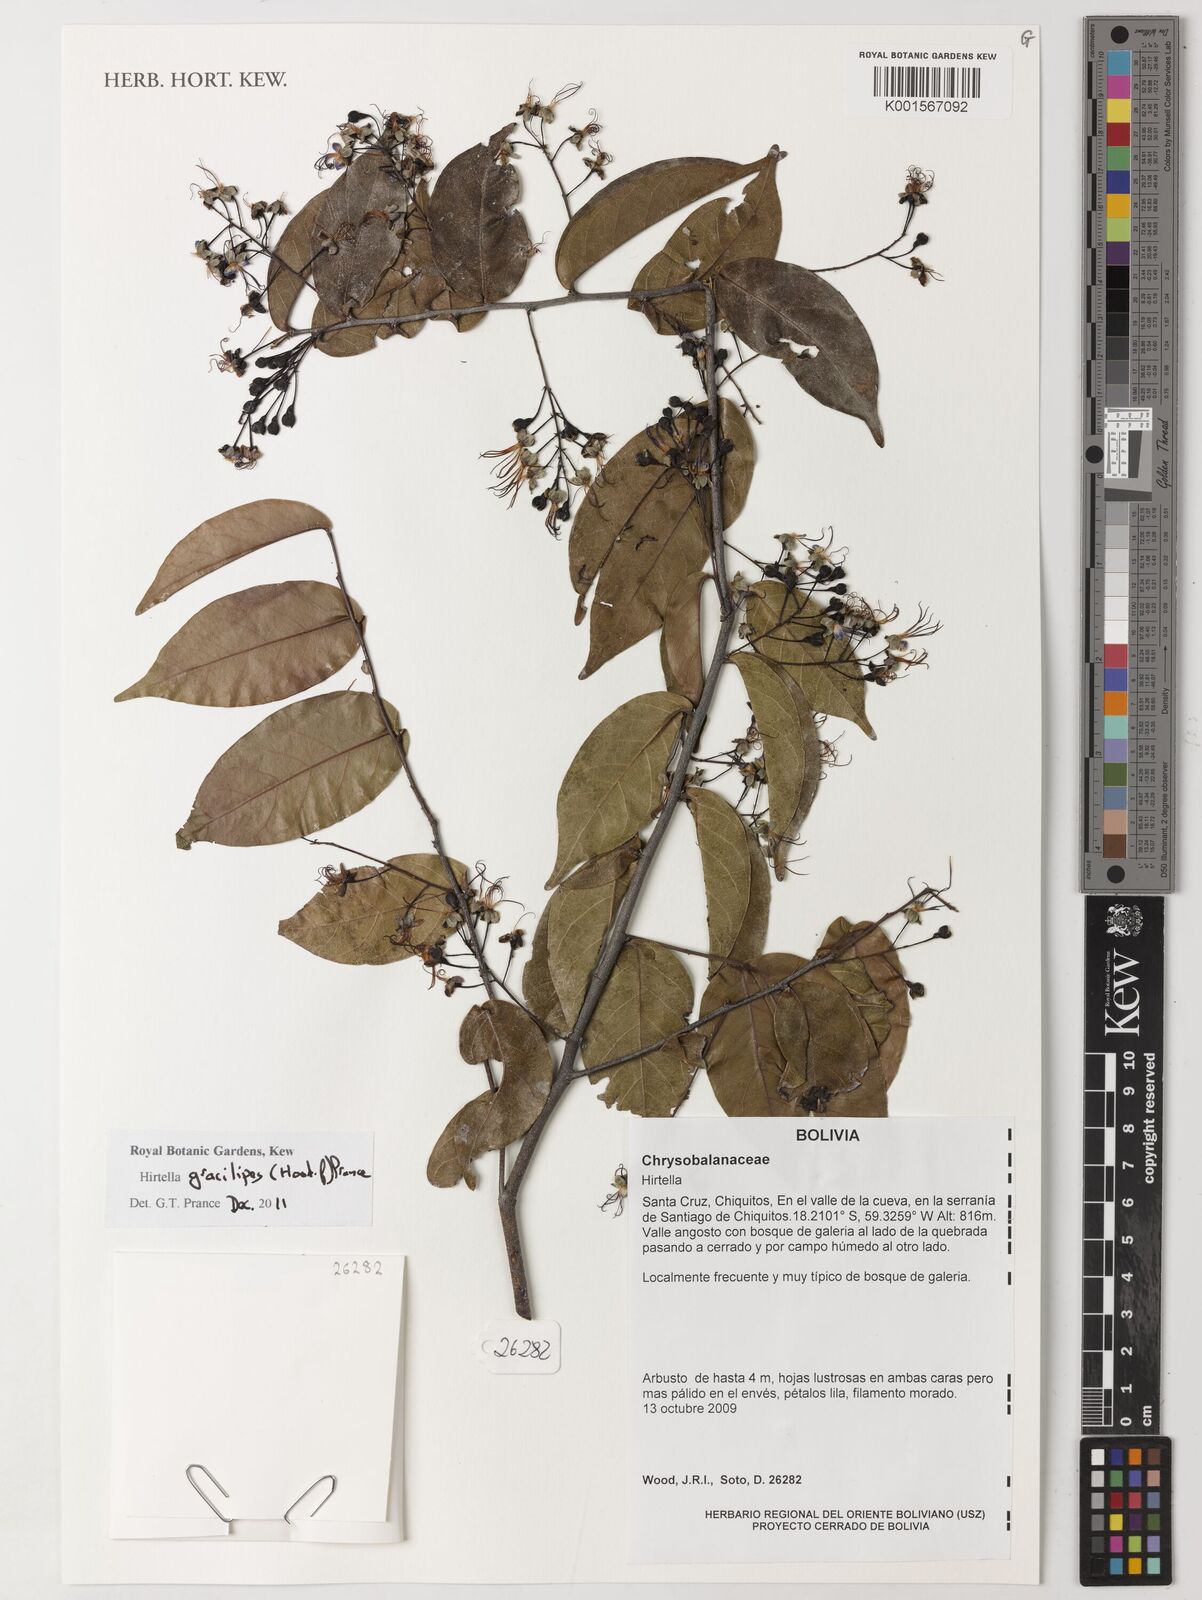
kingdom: Plantae
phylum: Tracheophyta
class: Magnoliopsida
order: Malpighiales
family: Chrysobalanaceae
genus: Hirtella
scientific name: Hirtella gracilipes
